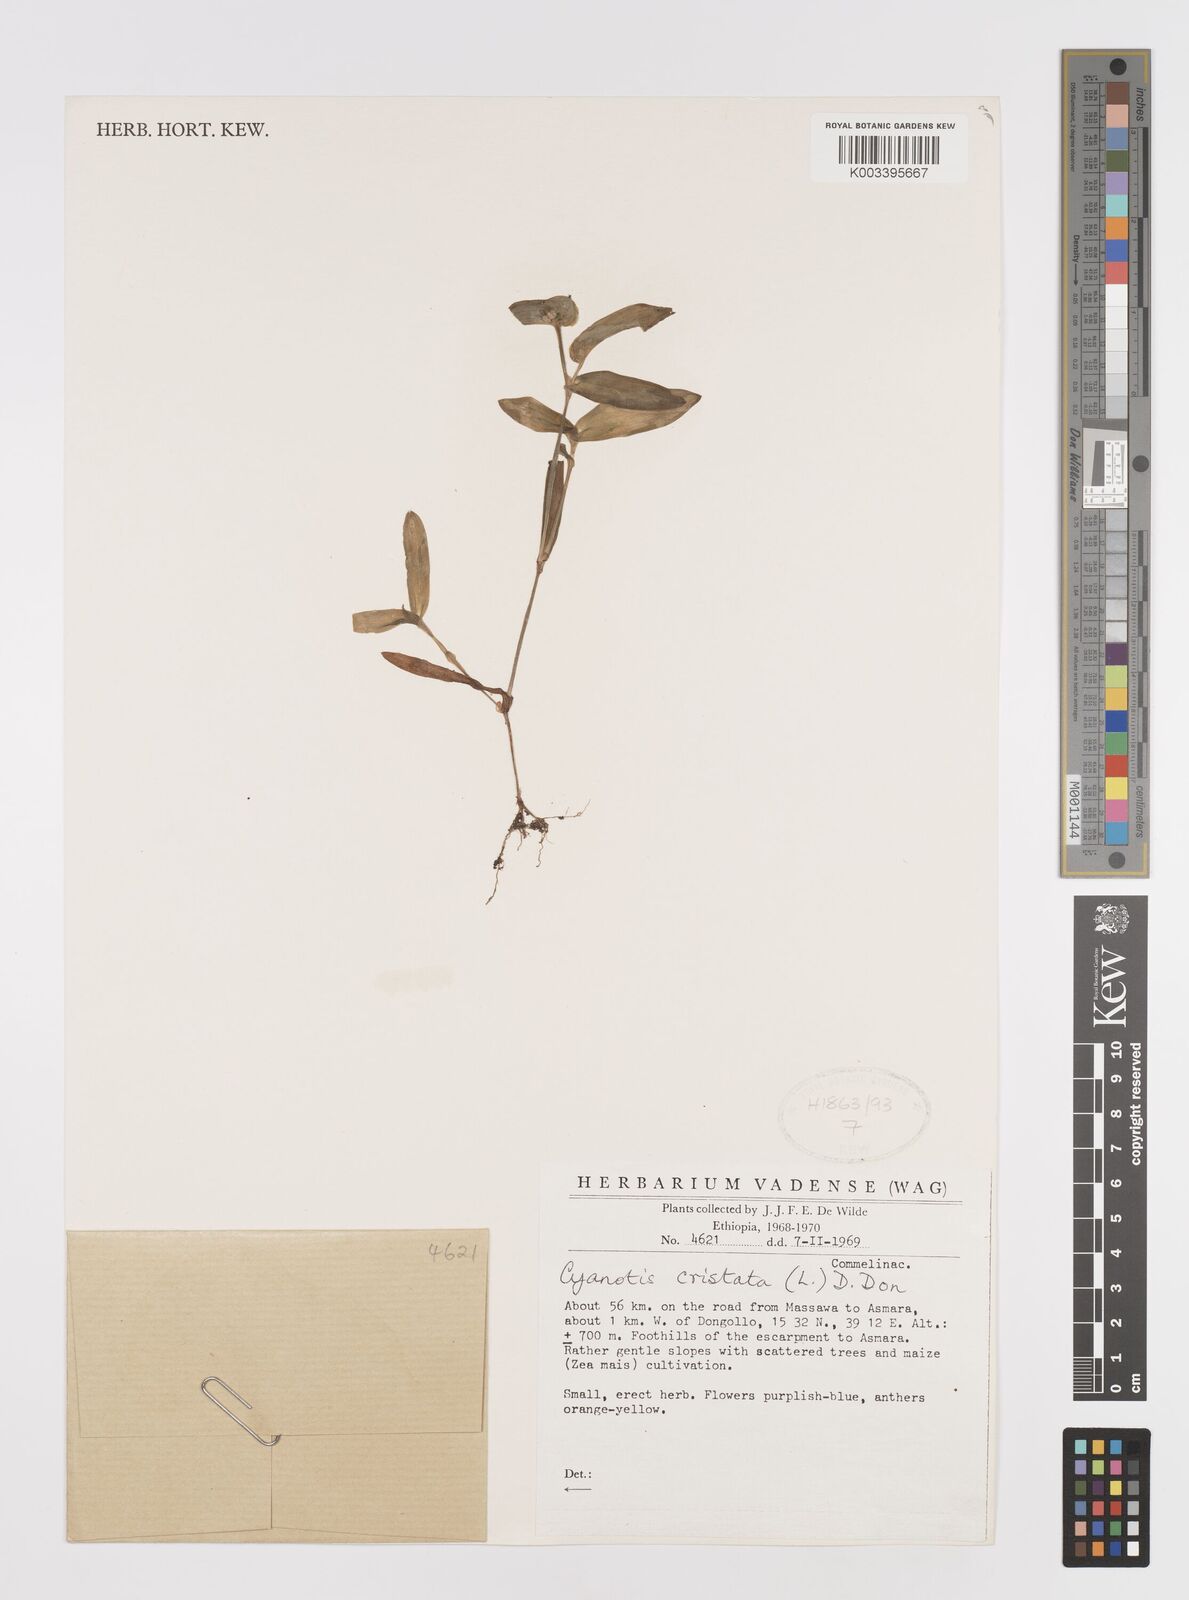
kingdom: Plantae
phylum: Tracheophyta
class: Liliopsida
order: Commelinales
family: Commelinaceae
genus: Cyanotis
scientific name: Cyanotis cristata
